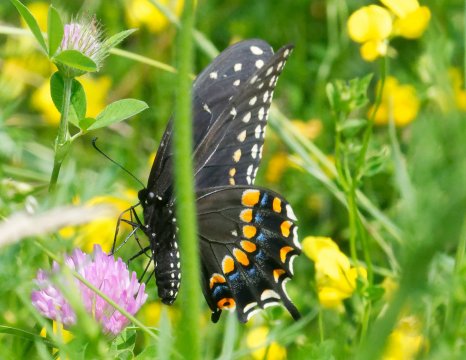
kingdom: Animalia
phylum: Arthropoda
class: Insecta
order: Lepidoptera
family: Papilionidae
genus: Papilio
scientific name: Papilio polyxenes
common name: Black Swallowtail
